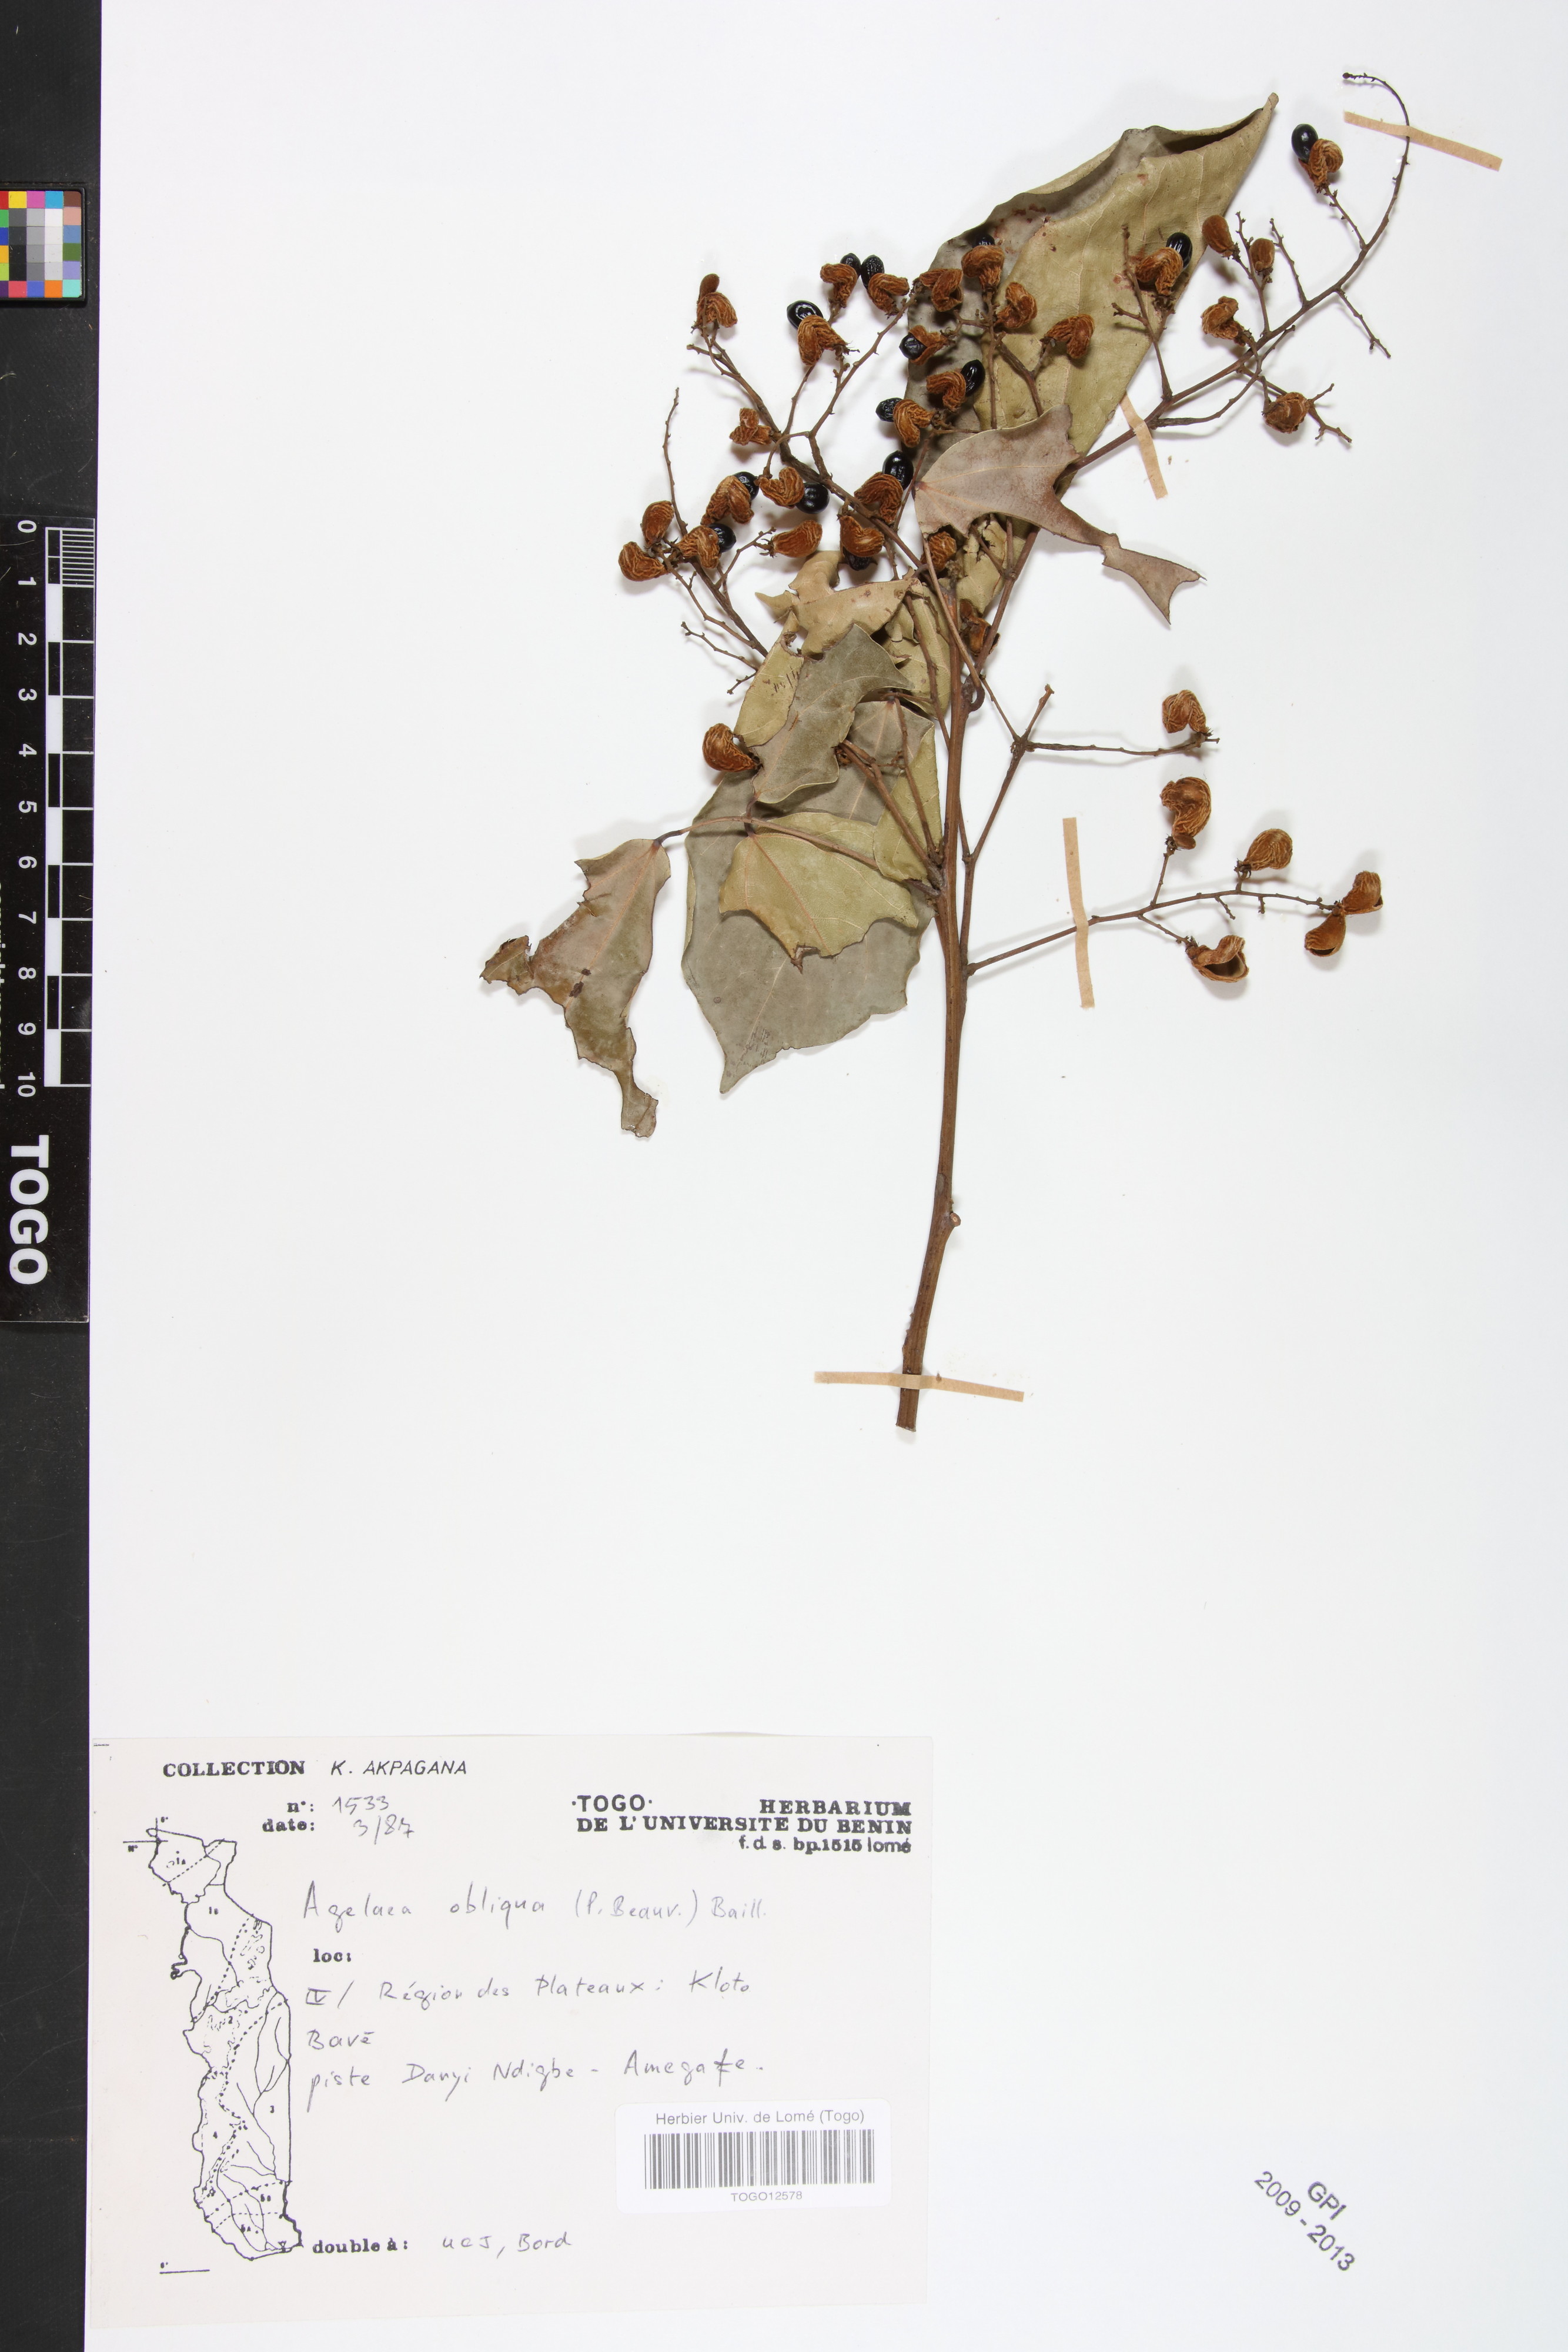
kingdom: Plantae
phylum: Tracheophyta
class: Magnoliopsida
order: Oxalidales
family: Connaraceae
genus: Agelaea
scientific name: Agelaea pentagyna
